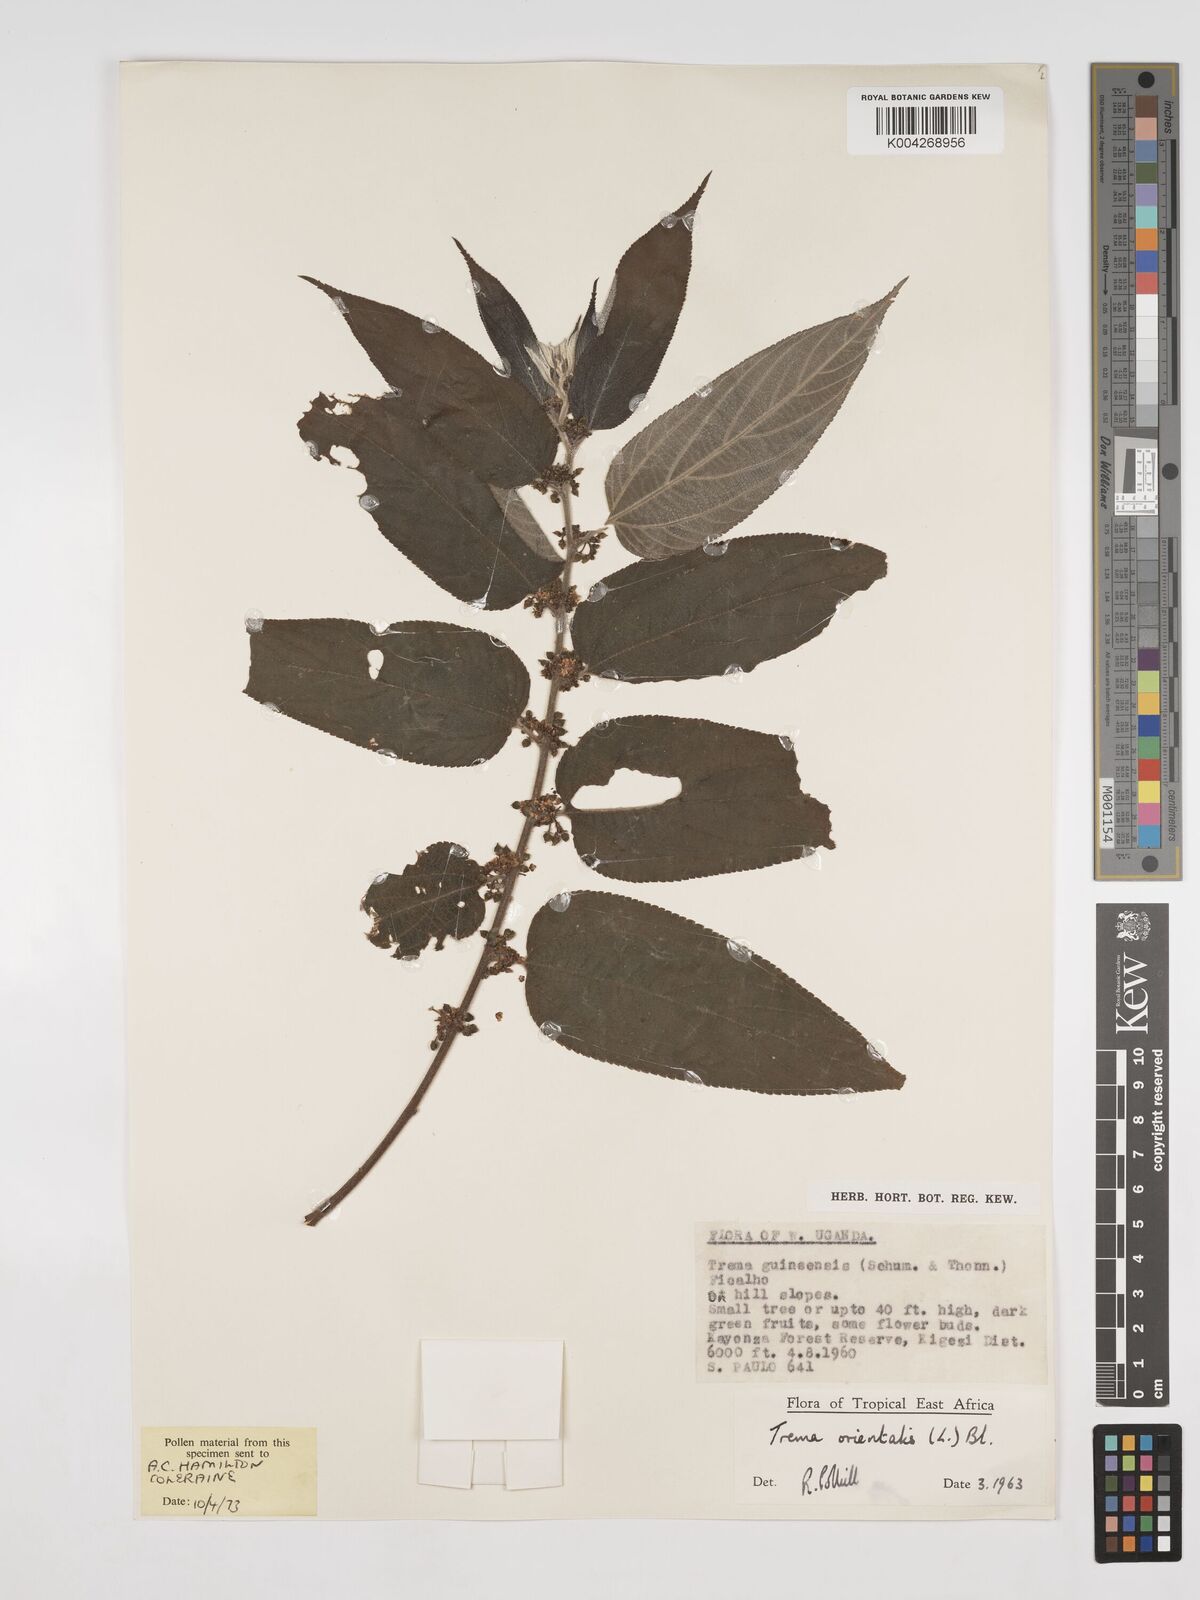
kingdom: Plantae
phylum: Tracheophyta
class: Magnoliopsida
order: Rosales
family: Cannabaceae
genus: Trema
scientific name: Trema orientale
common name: Indian charcoal tree
